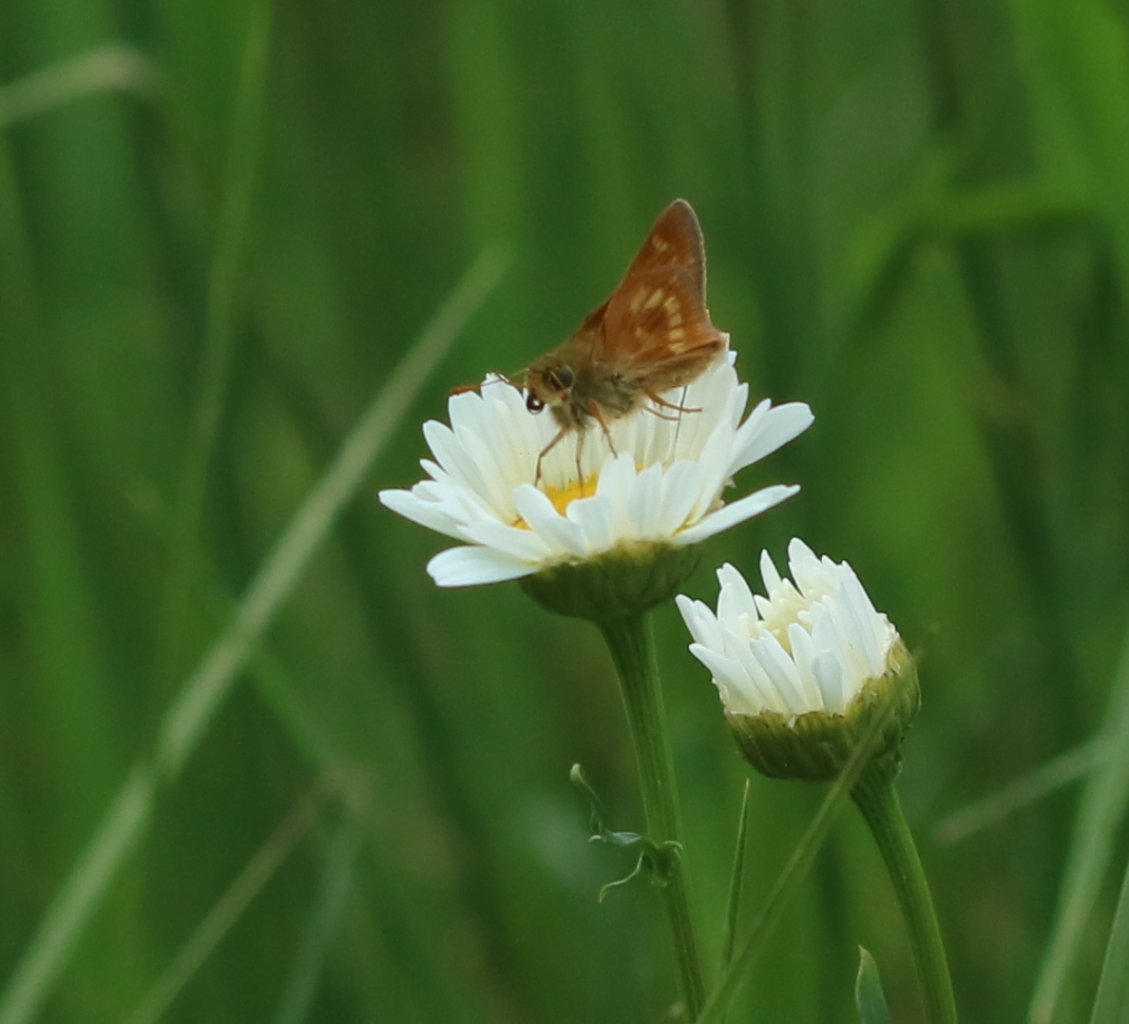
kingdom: Animalia
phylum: Arthropoda
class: Insecta
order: Lepidoptera
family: Hesperiidae
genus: Polites
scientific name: Polites
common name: Long Dash Skipper
